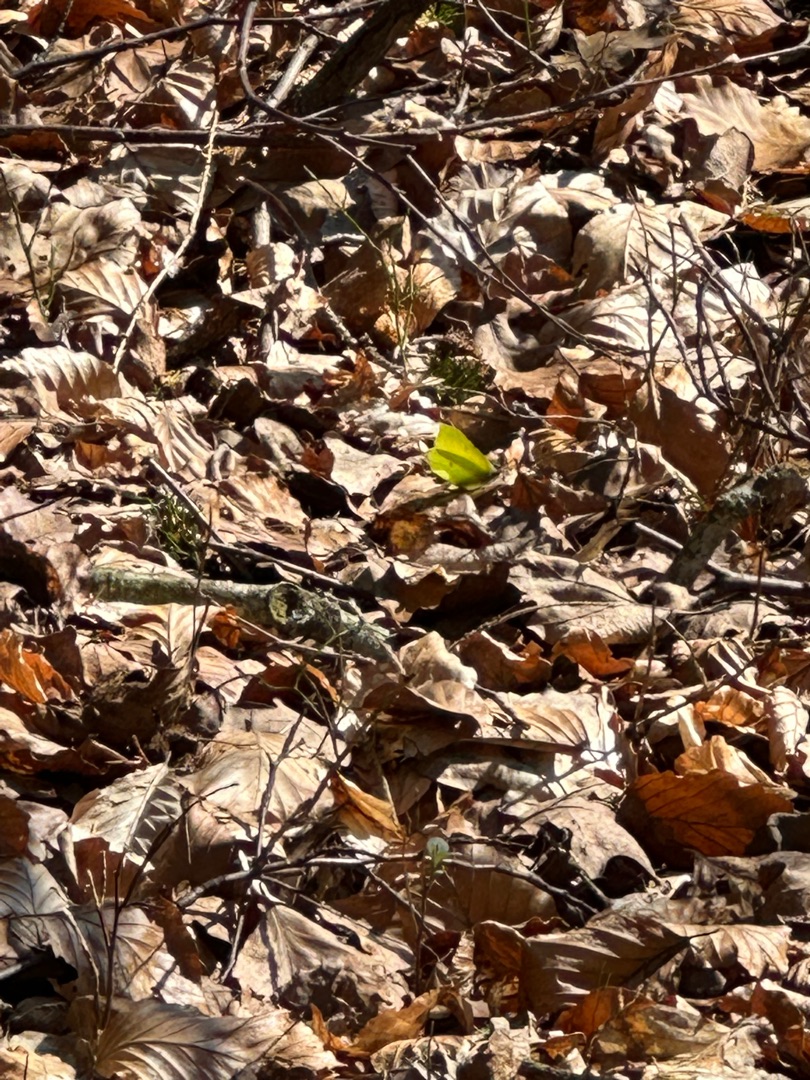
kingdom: Animalia
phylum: Arthropoda
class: Insecta
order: Lepidoptera
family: Pieridae
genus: Gonepteryx
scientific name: Gonepteryx rhamni
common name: Citronsommerfugl
